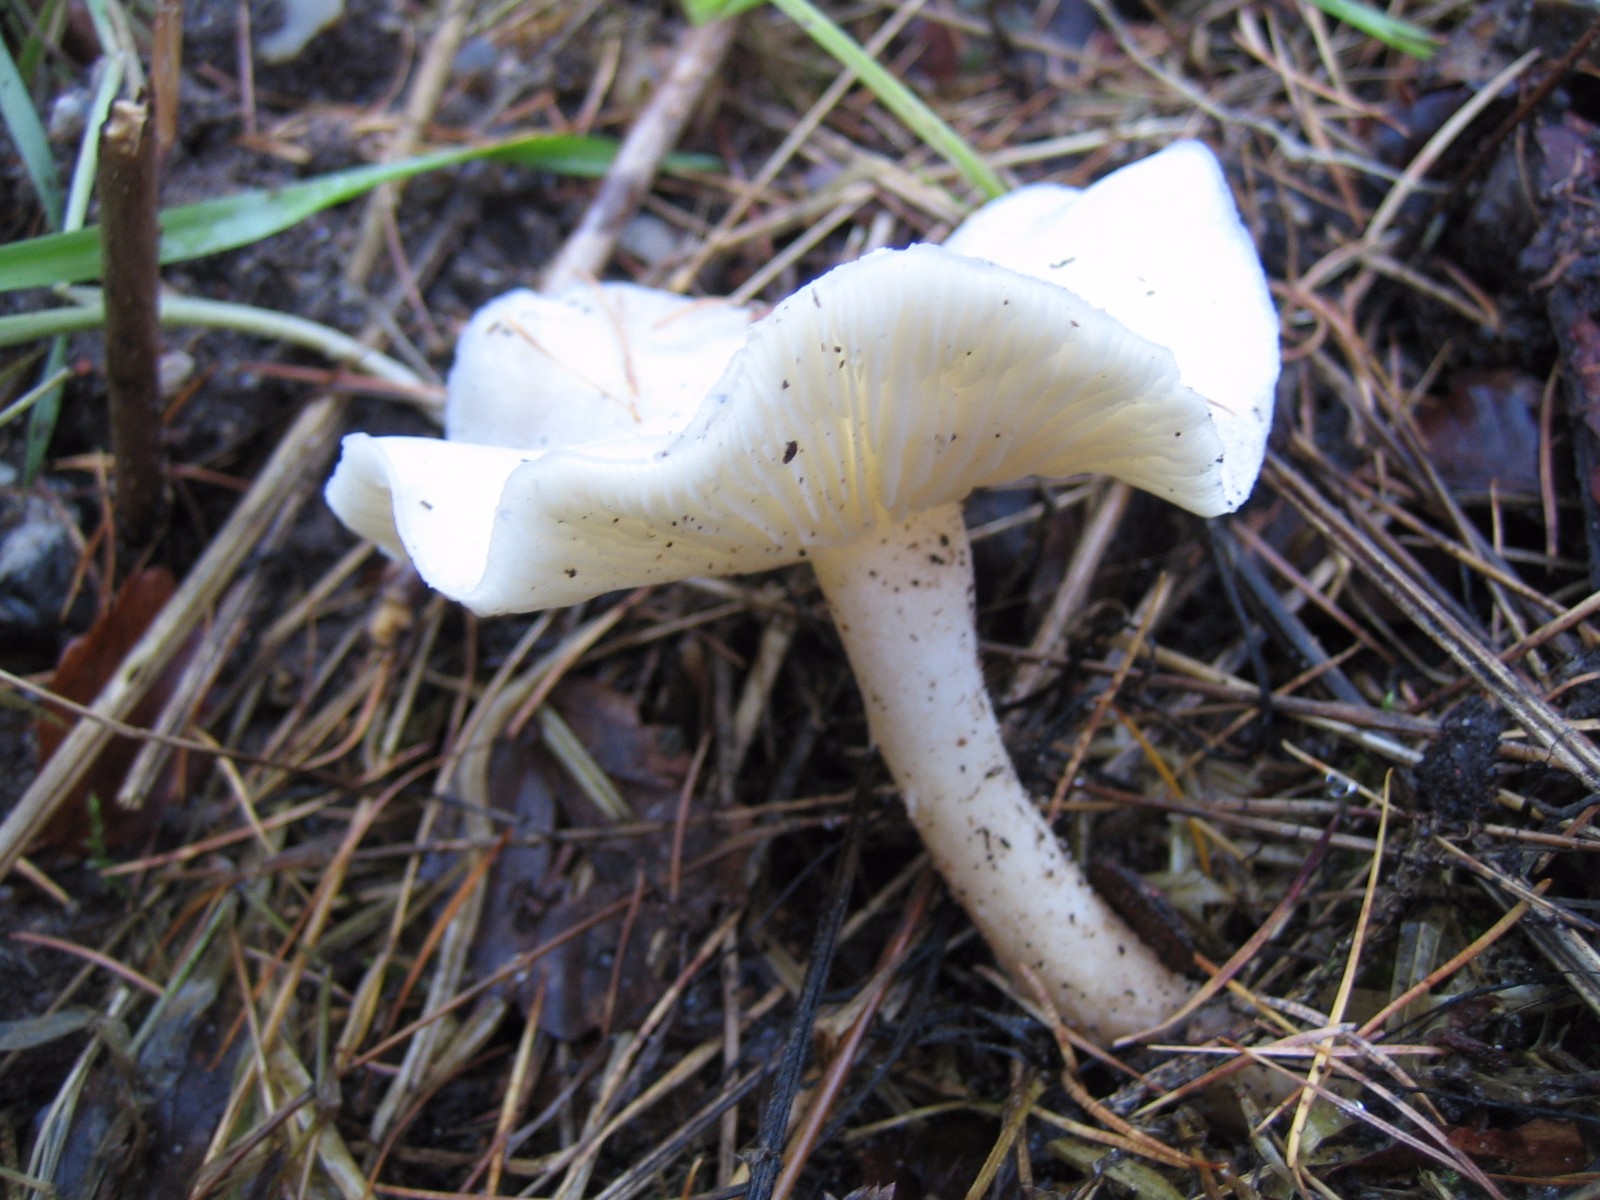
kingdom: Fungi
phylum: Basidiomycota
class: Agaricomycetes
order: Agaricales
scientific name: Agaricales
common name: champignonordenen
